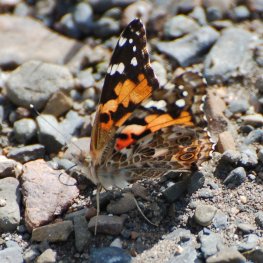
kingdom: Animalia
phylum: Arthropoda
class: Insecta
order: Lepidoptera
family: Nymphalidae
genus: Vanessa
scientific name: Vanessa cardui
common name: Painted Lady
